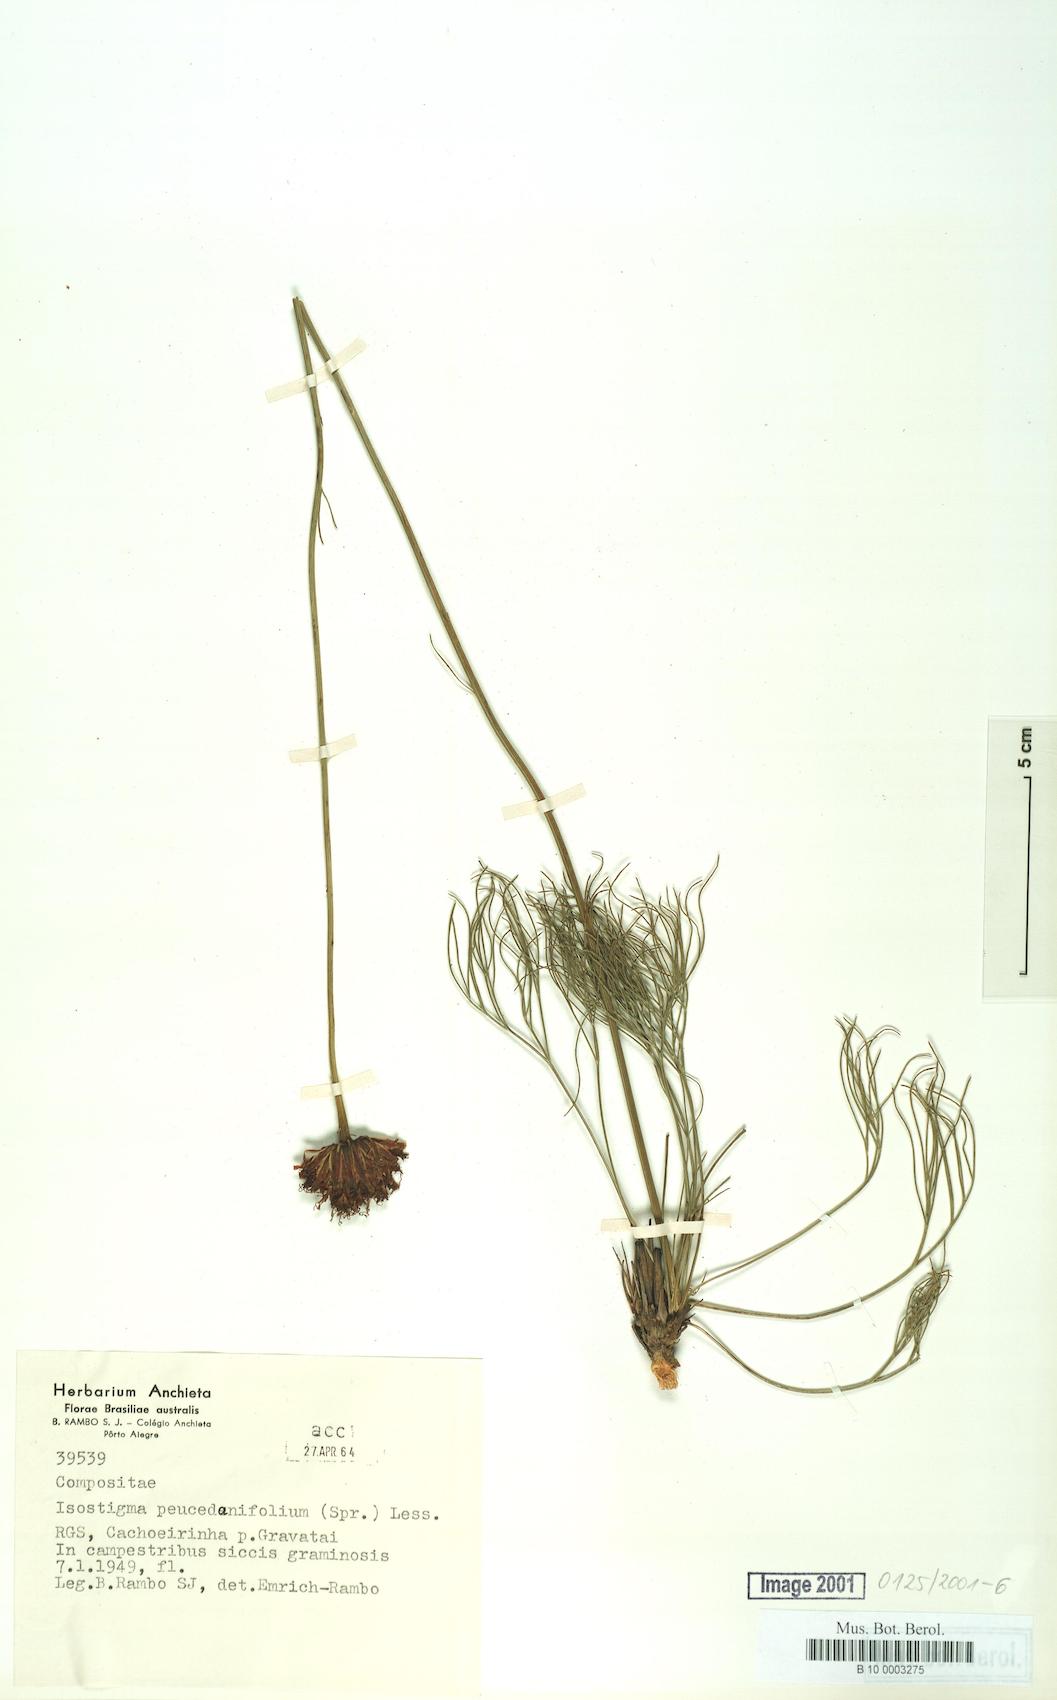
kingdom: Plantae
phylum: Tracheophyta
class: Magnoliopsida
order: Asterales
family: Asteraceae
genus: Isostigma
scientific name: Isostigma peucedanifolium
